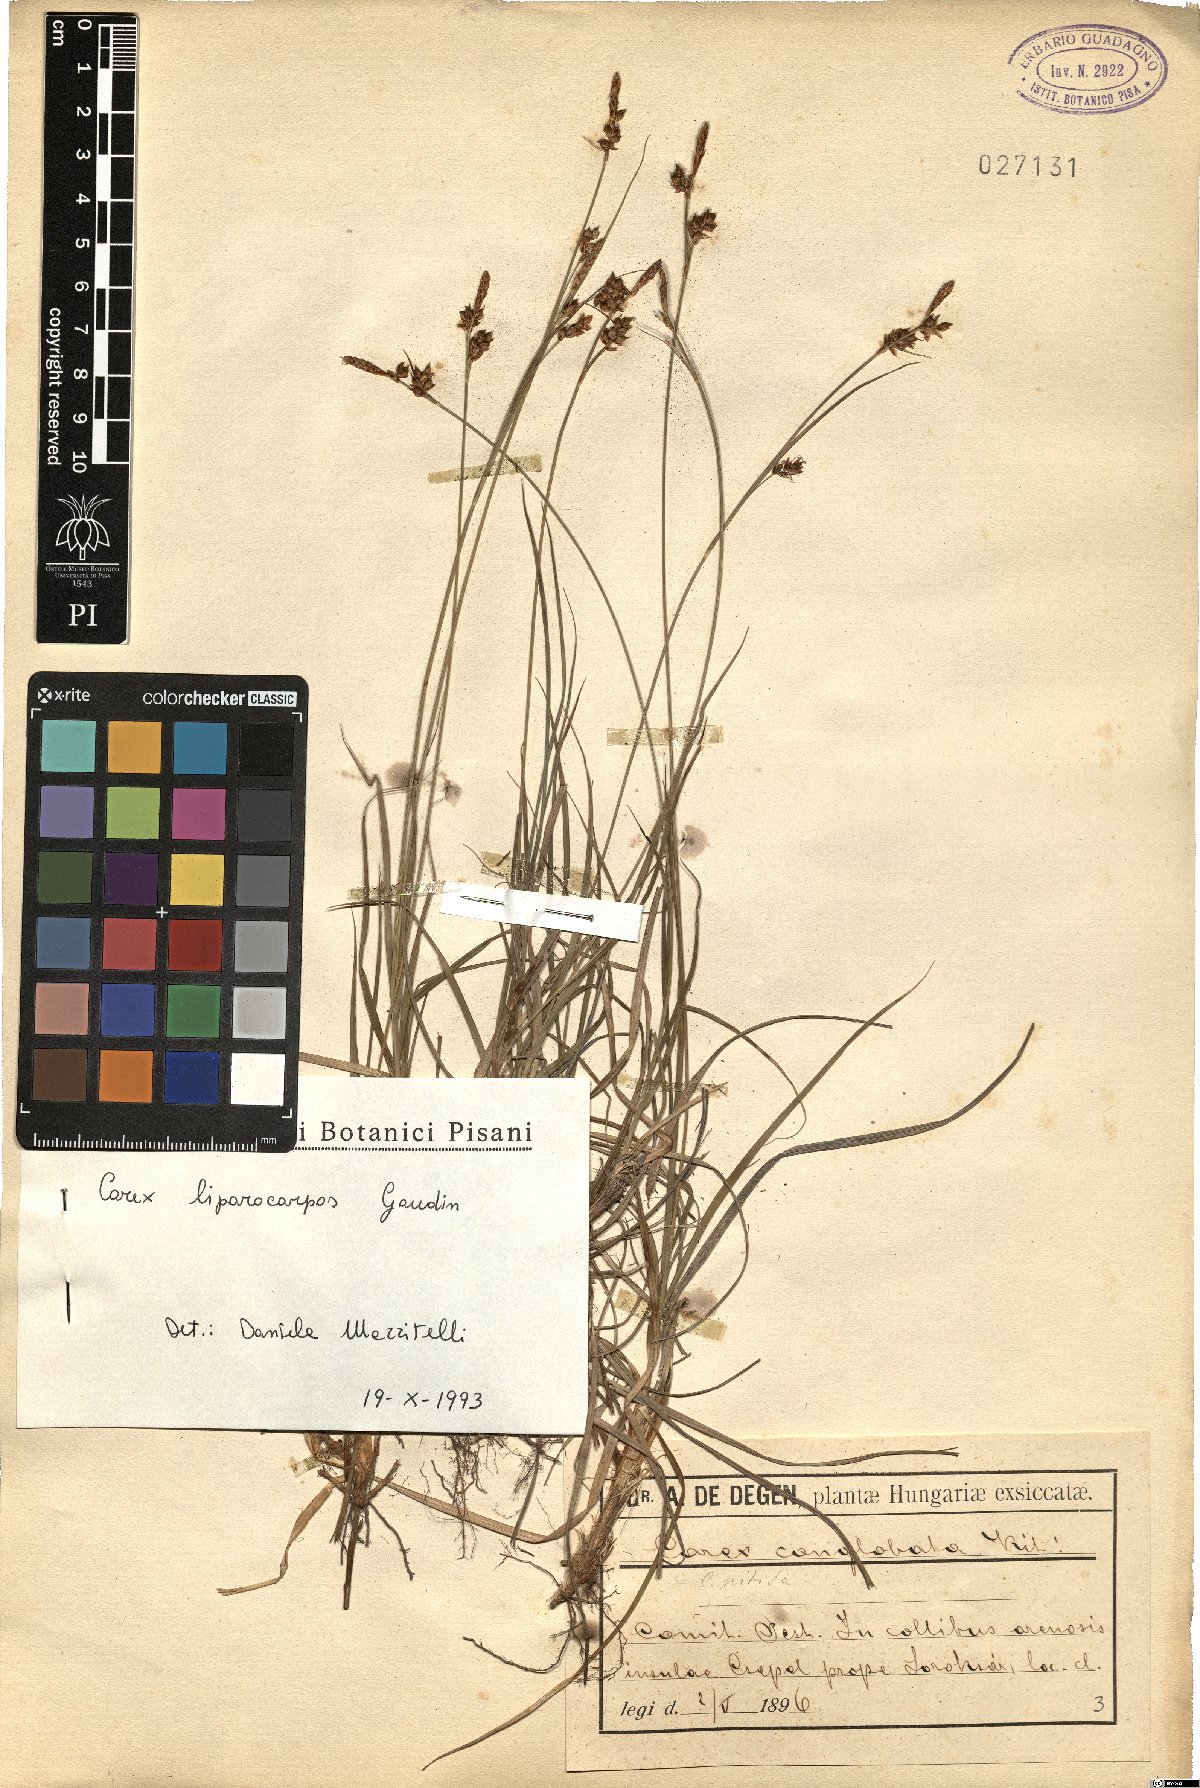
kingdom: Plantae
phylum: Tracheophyta
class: Liliopsida
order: Poales
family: Cyperaceae
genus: Carex
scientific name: Carex liparocarpos
